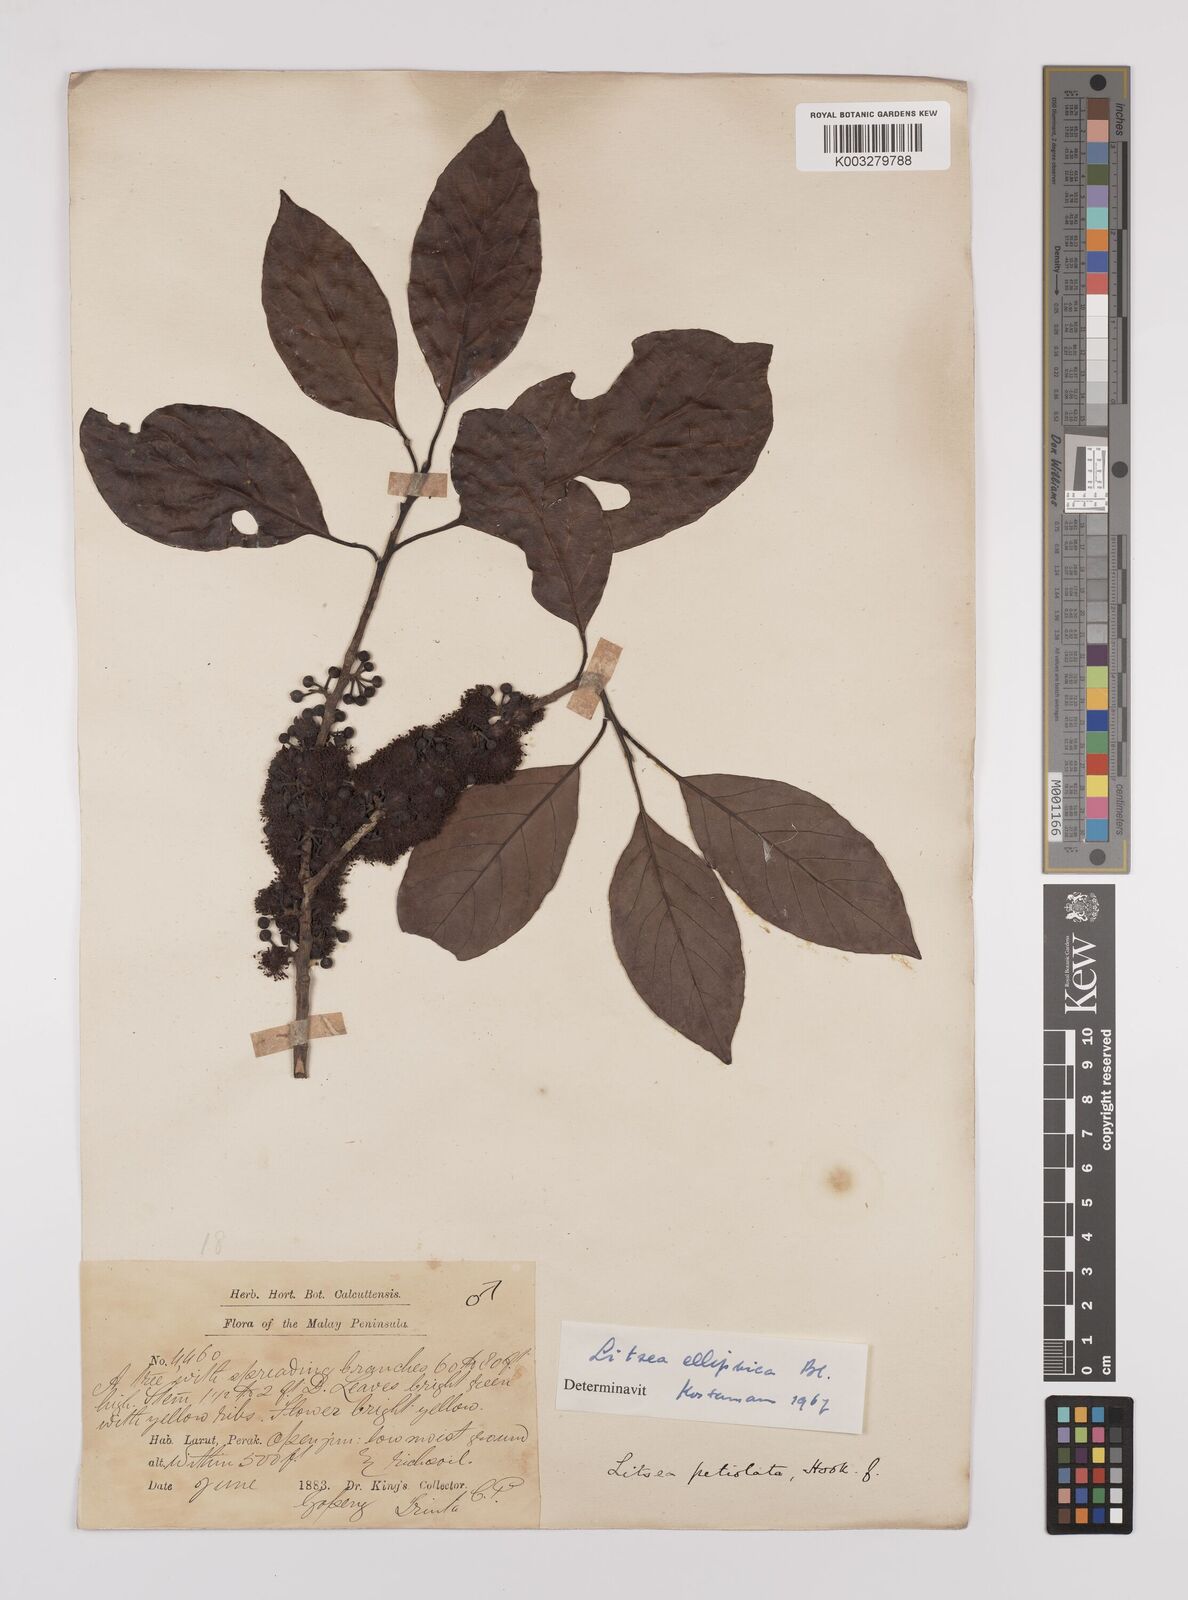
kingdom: Plantae
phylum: Tracheophyta
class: Magnoliopsida
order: Laurales
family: Lauraceae
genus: Litsea
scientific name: Litsea elliptica
